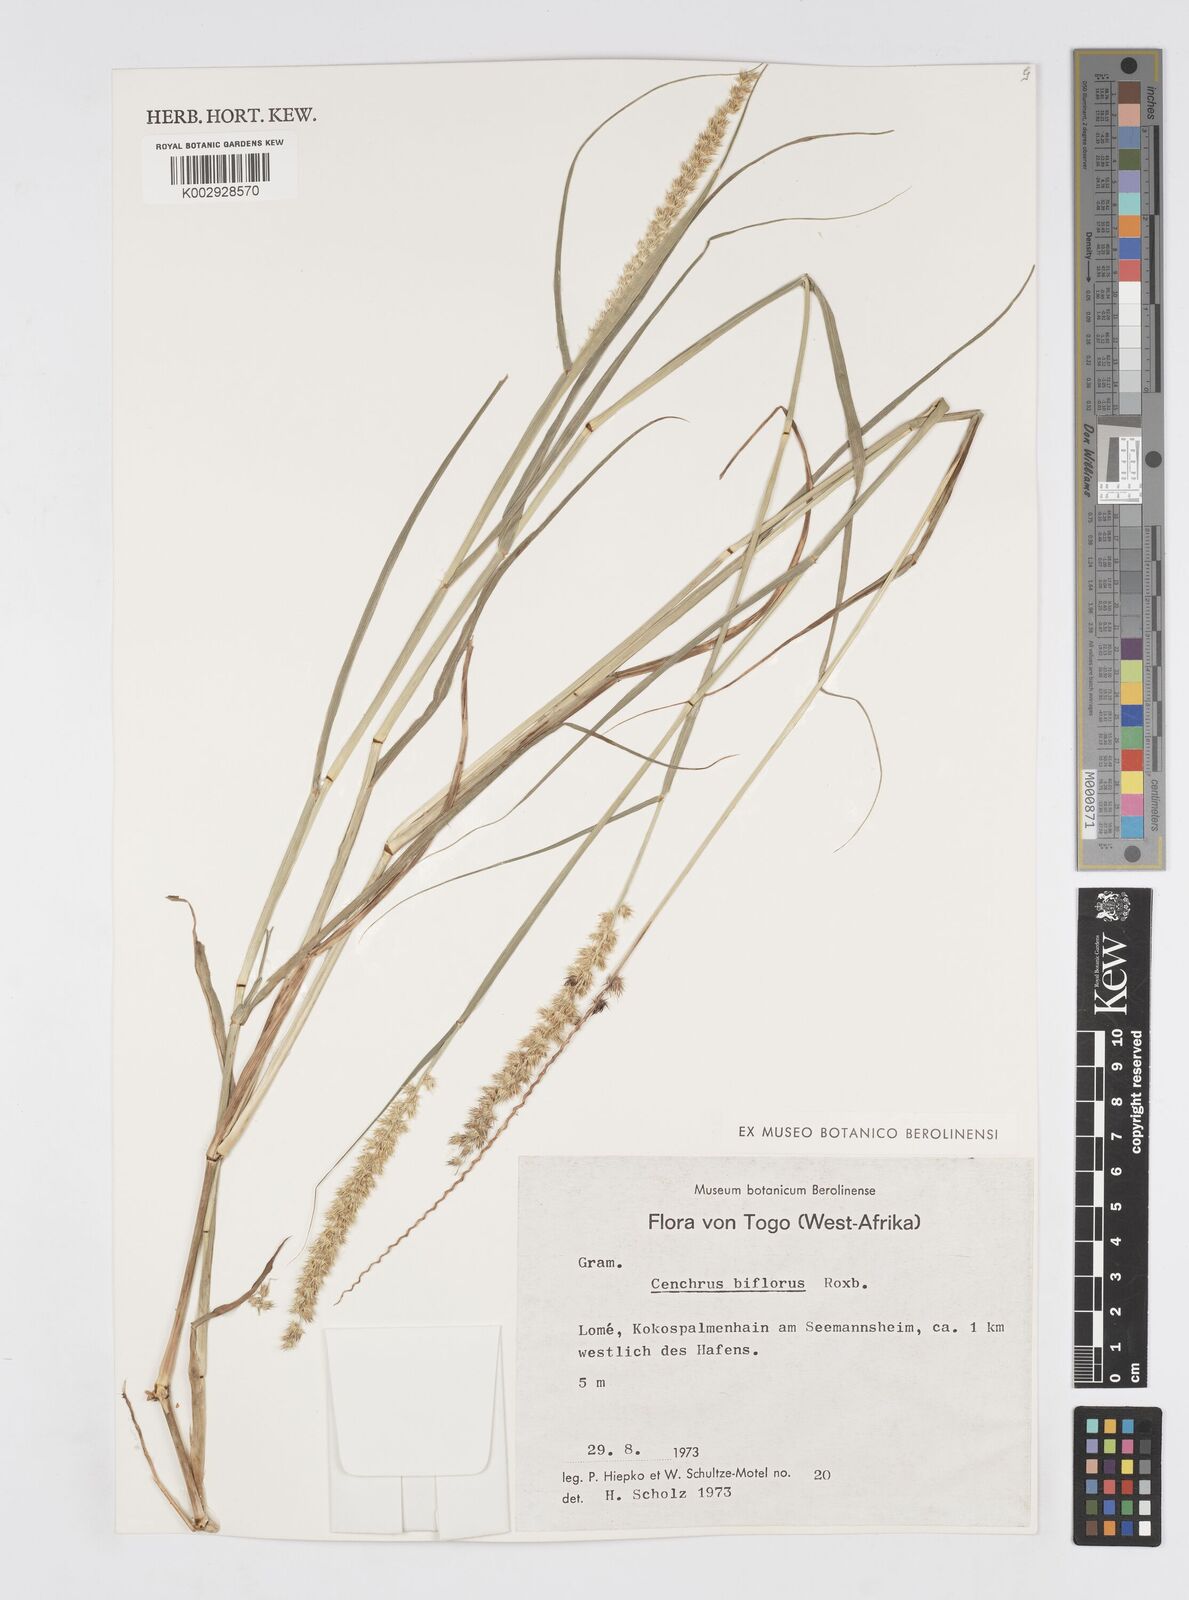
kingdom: Plantae
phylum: Tracheophyta
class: Liliopsida
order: Poales
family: Poaceae
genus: Cenchrus
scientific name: Cenchrus biflorus
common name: Indian sandbur
